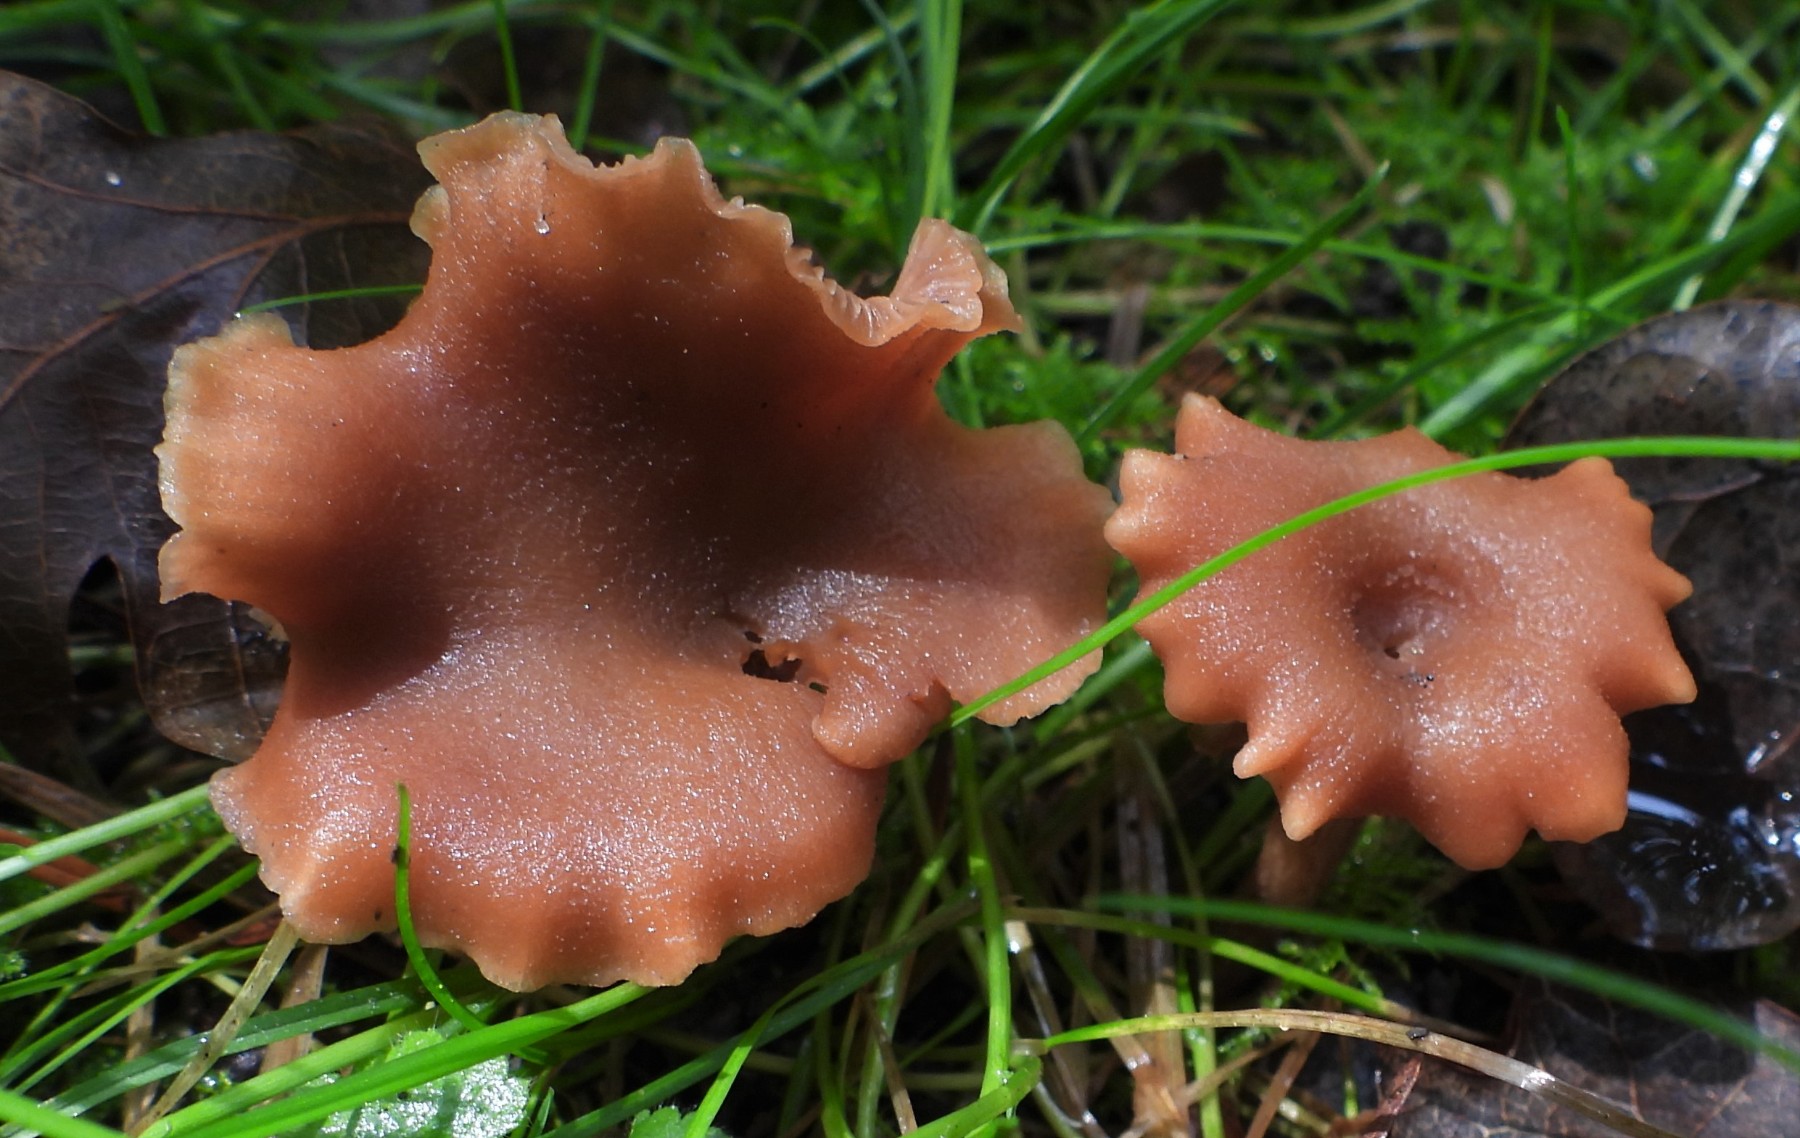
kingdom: Fungi
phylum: Basidiomycota
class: Agaricomycetes
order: Agaricales
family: Hydnangiaceae
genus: Laccaria
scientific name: Laccaria laccata
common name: rød ametysthat
